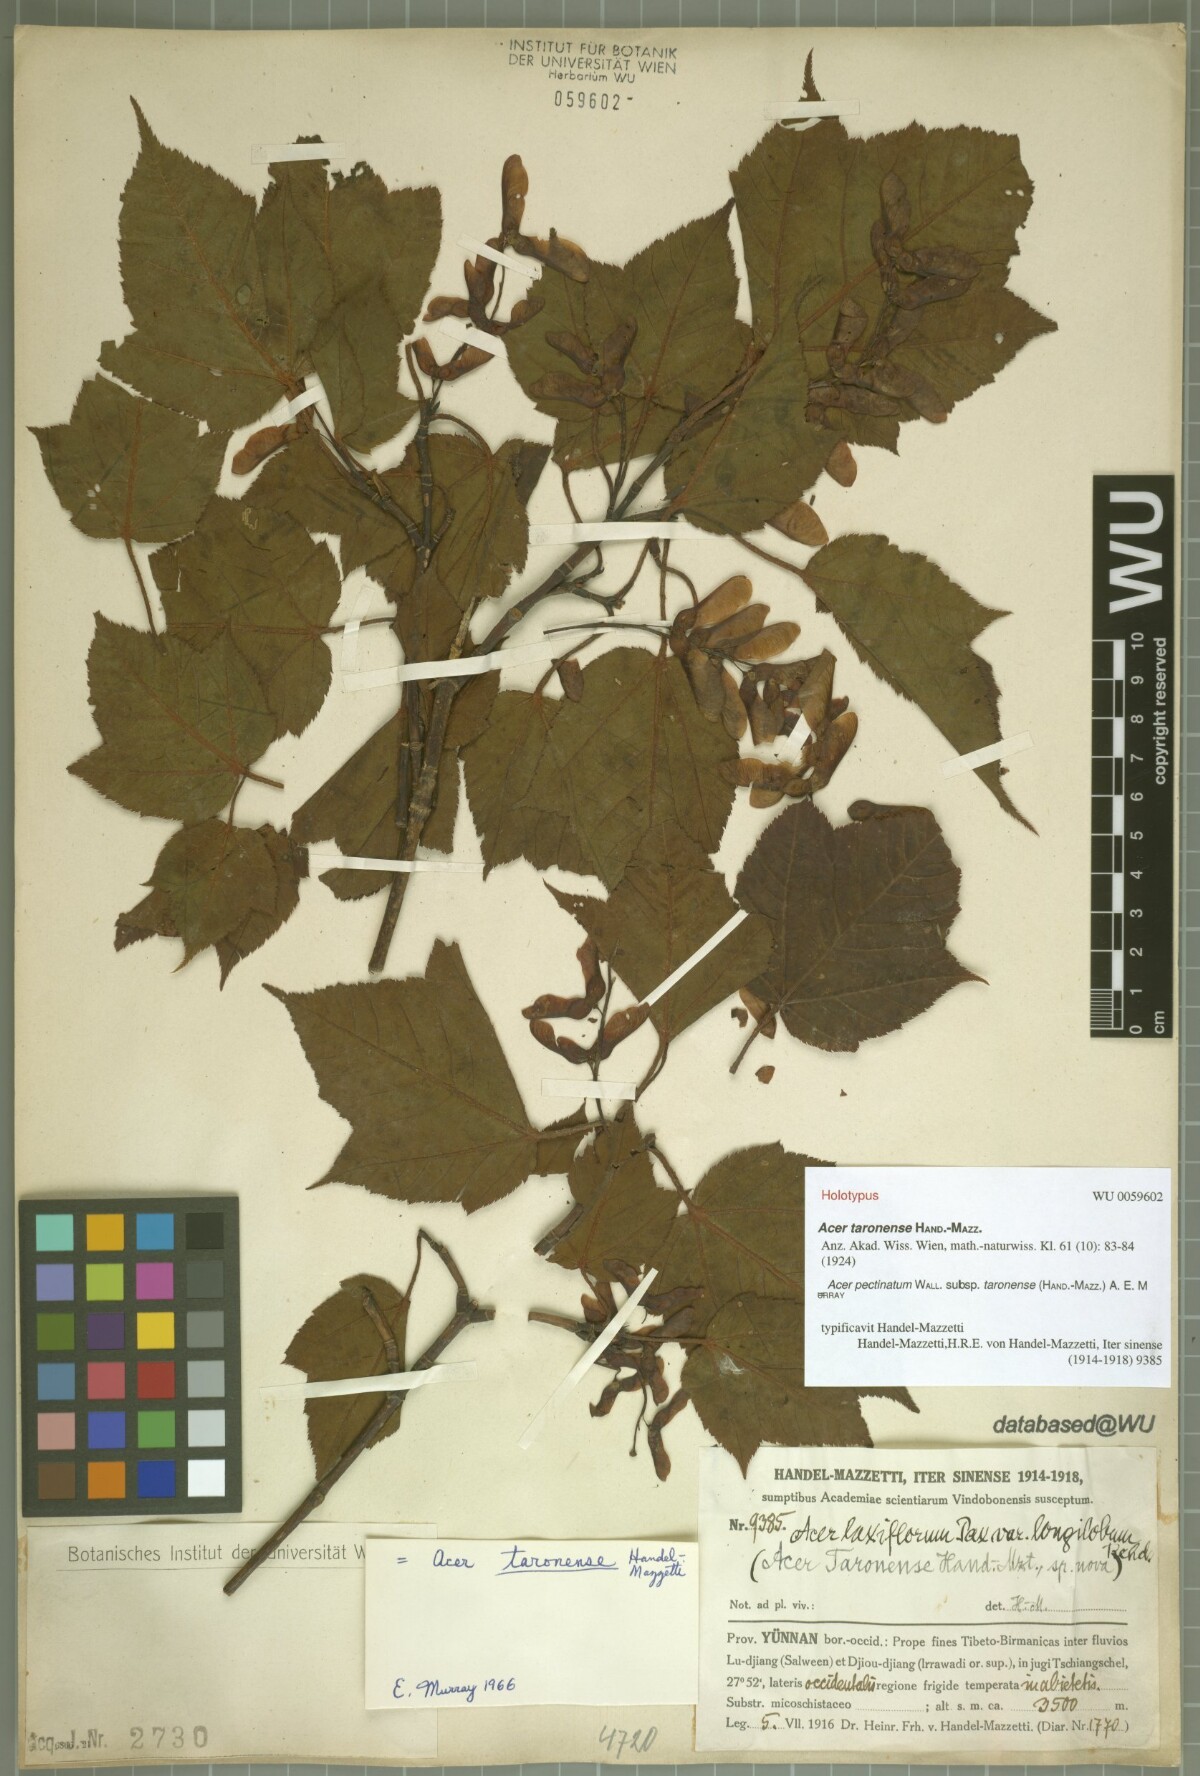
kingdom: Plantae
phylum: Tracheophyta
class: Magnoliopsida
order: Sapindales
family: Sapindaceae
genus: Acer
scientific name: Acer pectinatum
